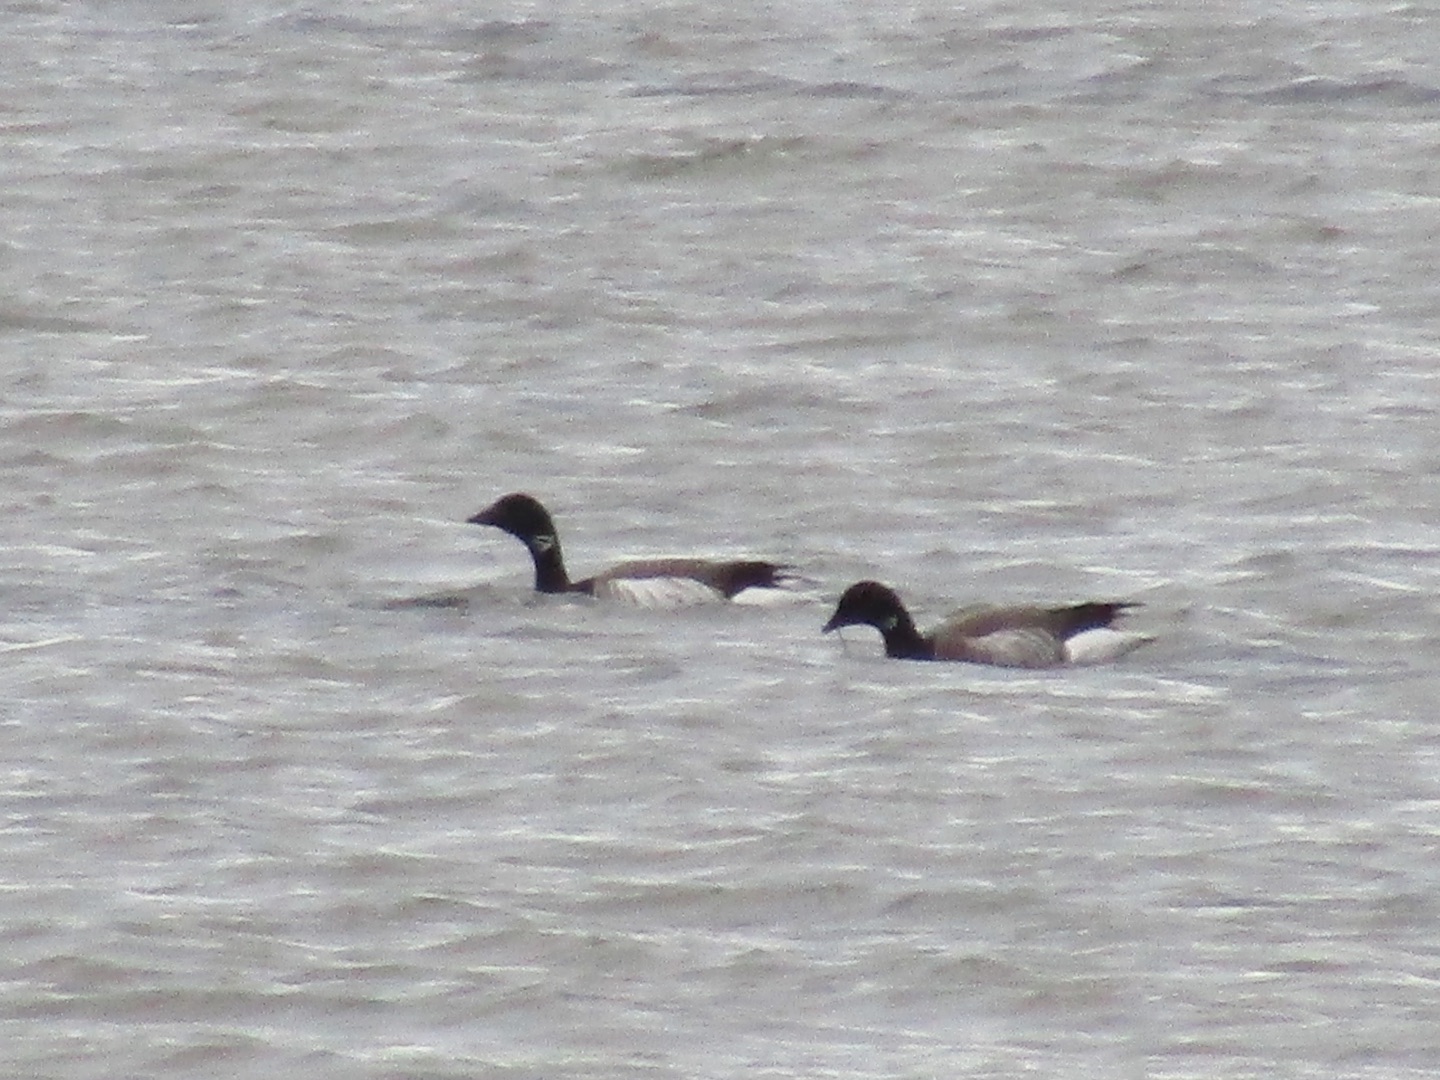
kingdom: Animalia
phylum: Chordata
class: Aves
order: Anseriformes
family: Anatidae
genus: Branta
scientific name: Branta bernicla
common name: Knortegås
